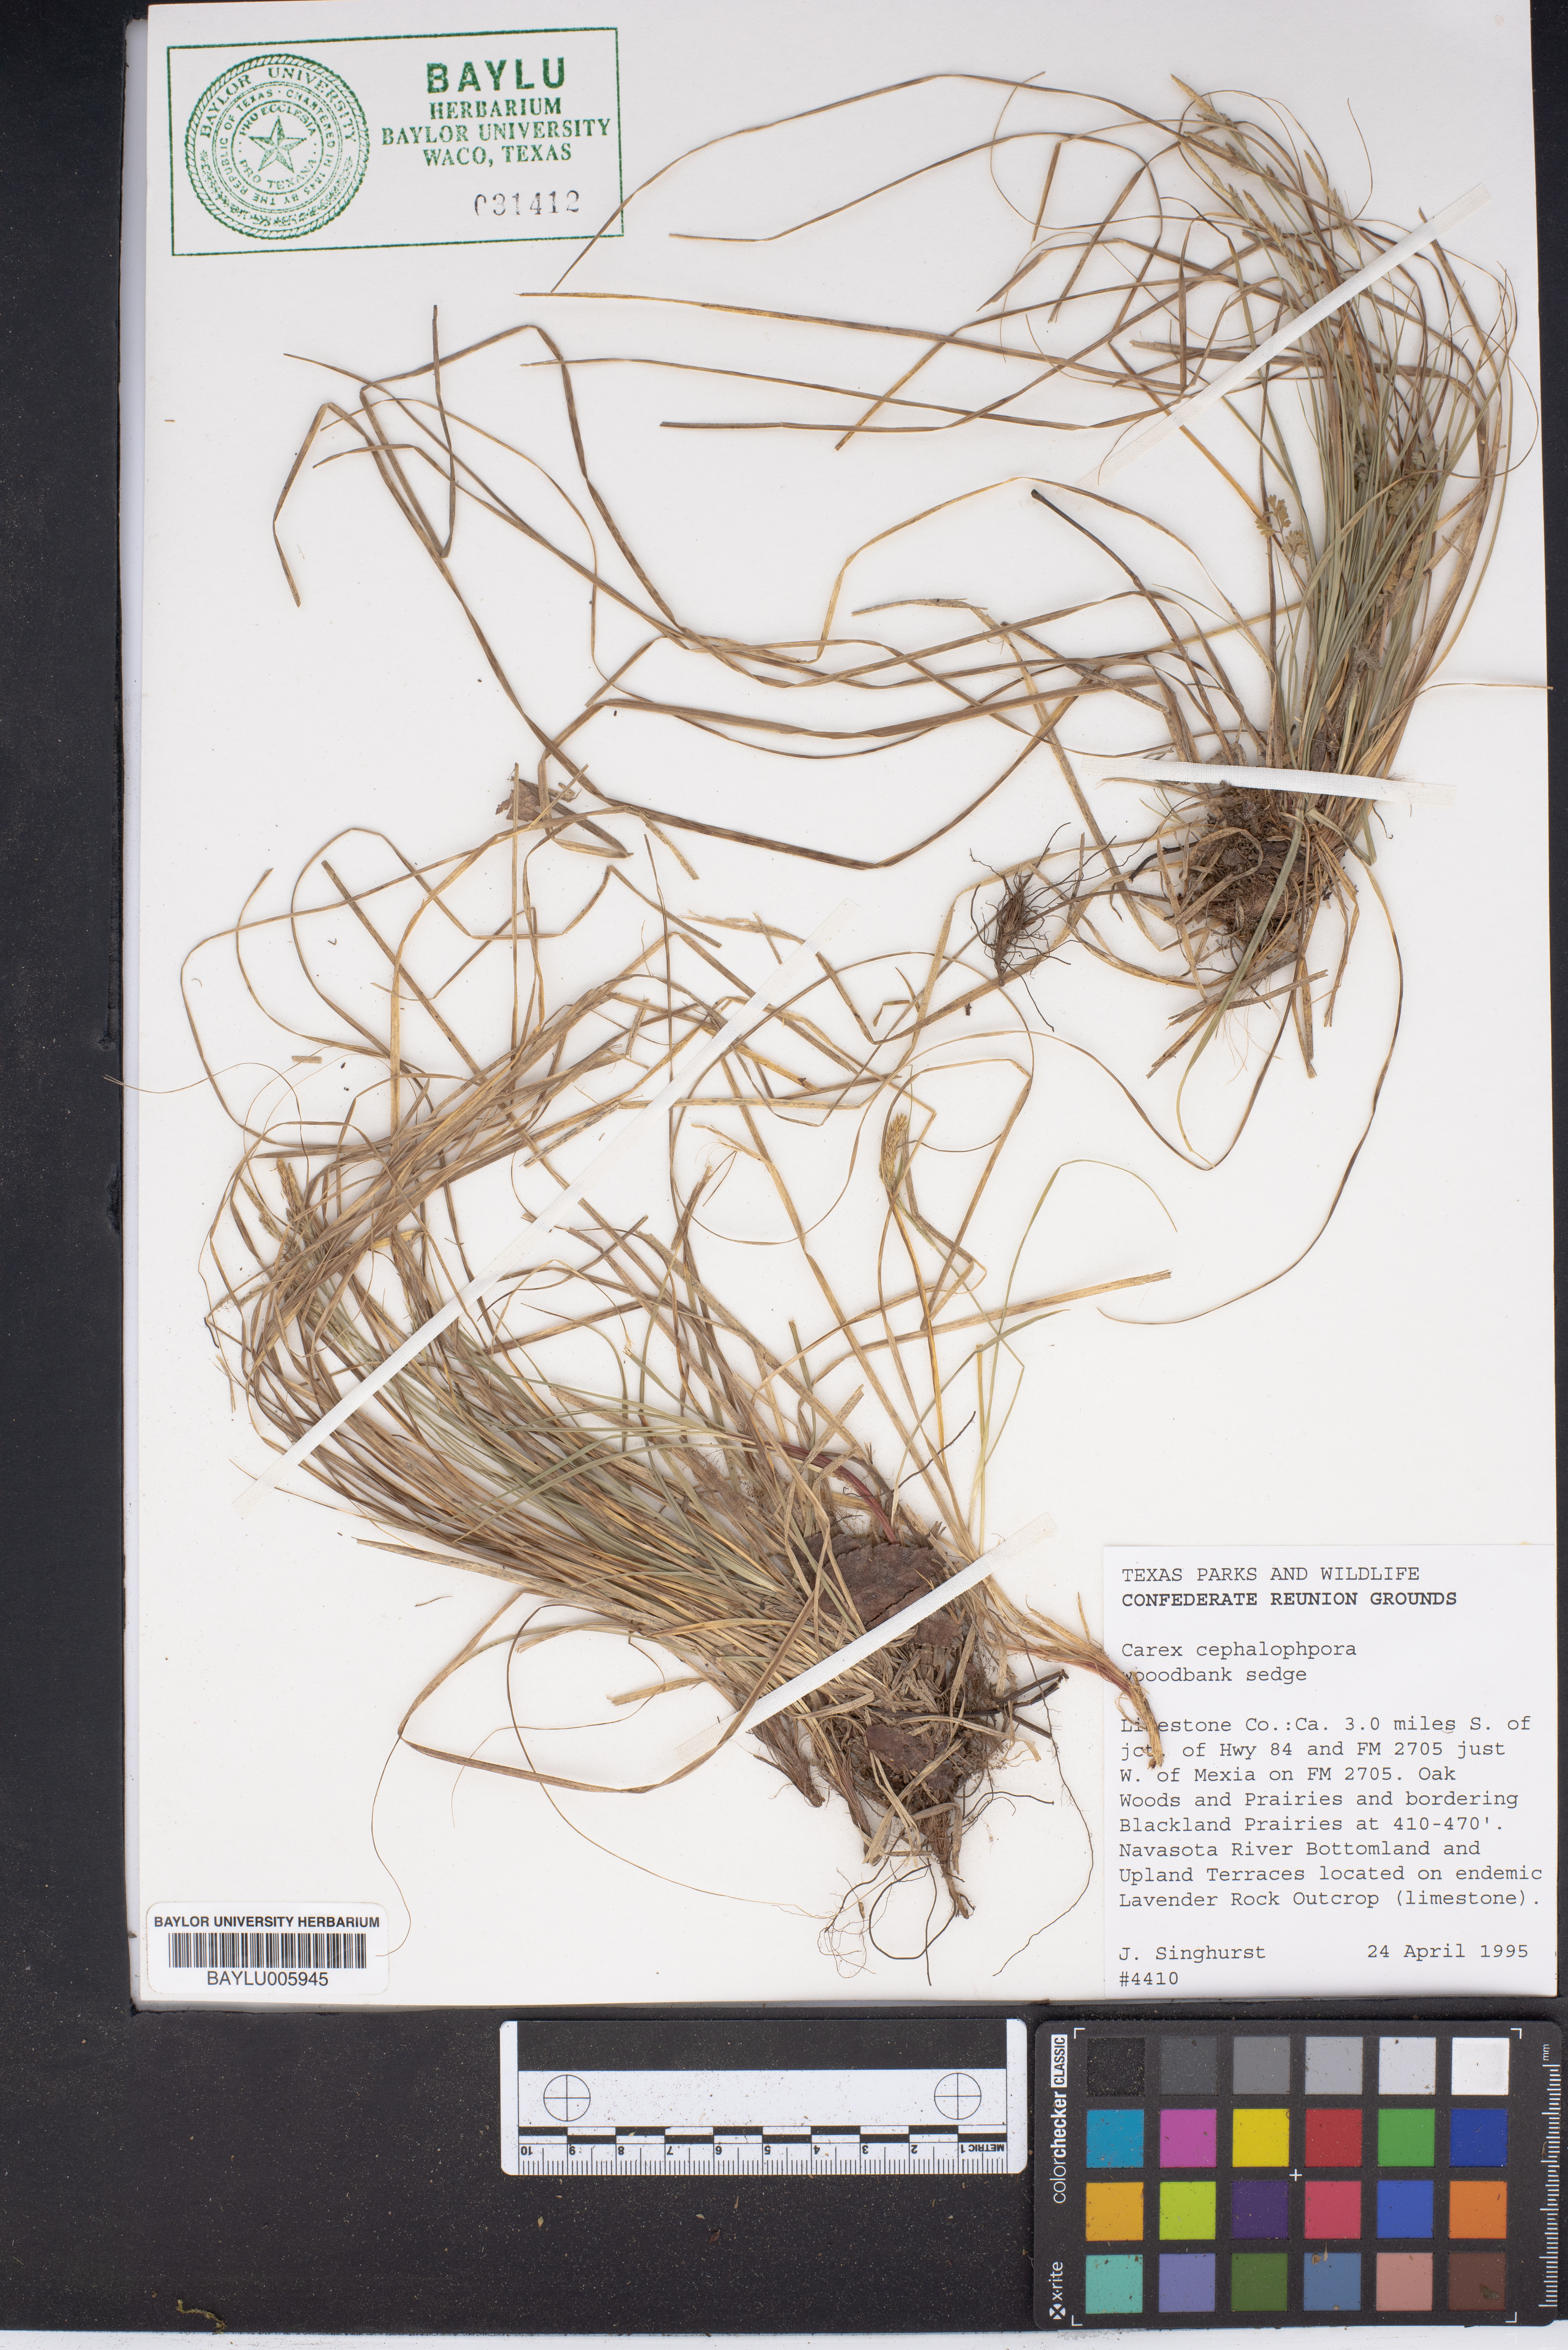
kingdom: Plantae
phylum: Tracheophyta
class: Liliopsida
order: Poales
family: Cyperaceae
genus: Carex
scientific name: Carex cephalophora
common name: Oval-headed sedge
